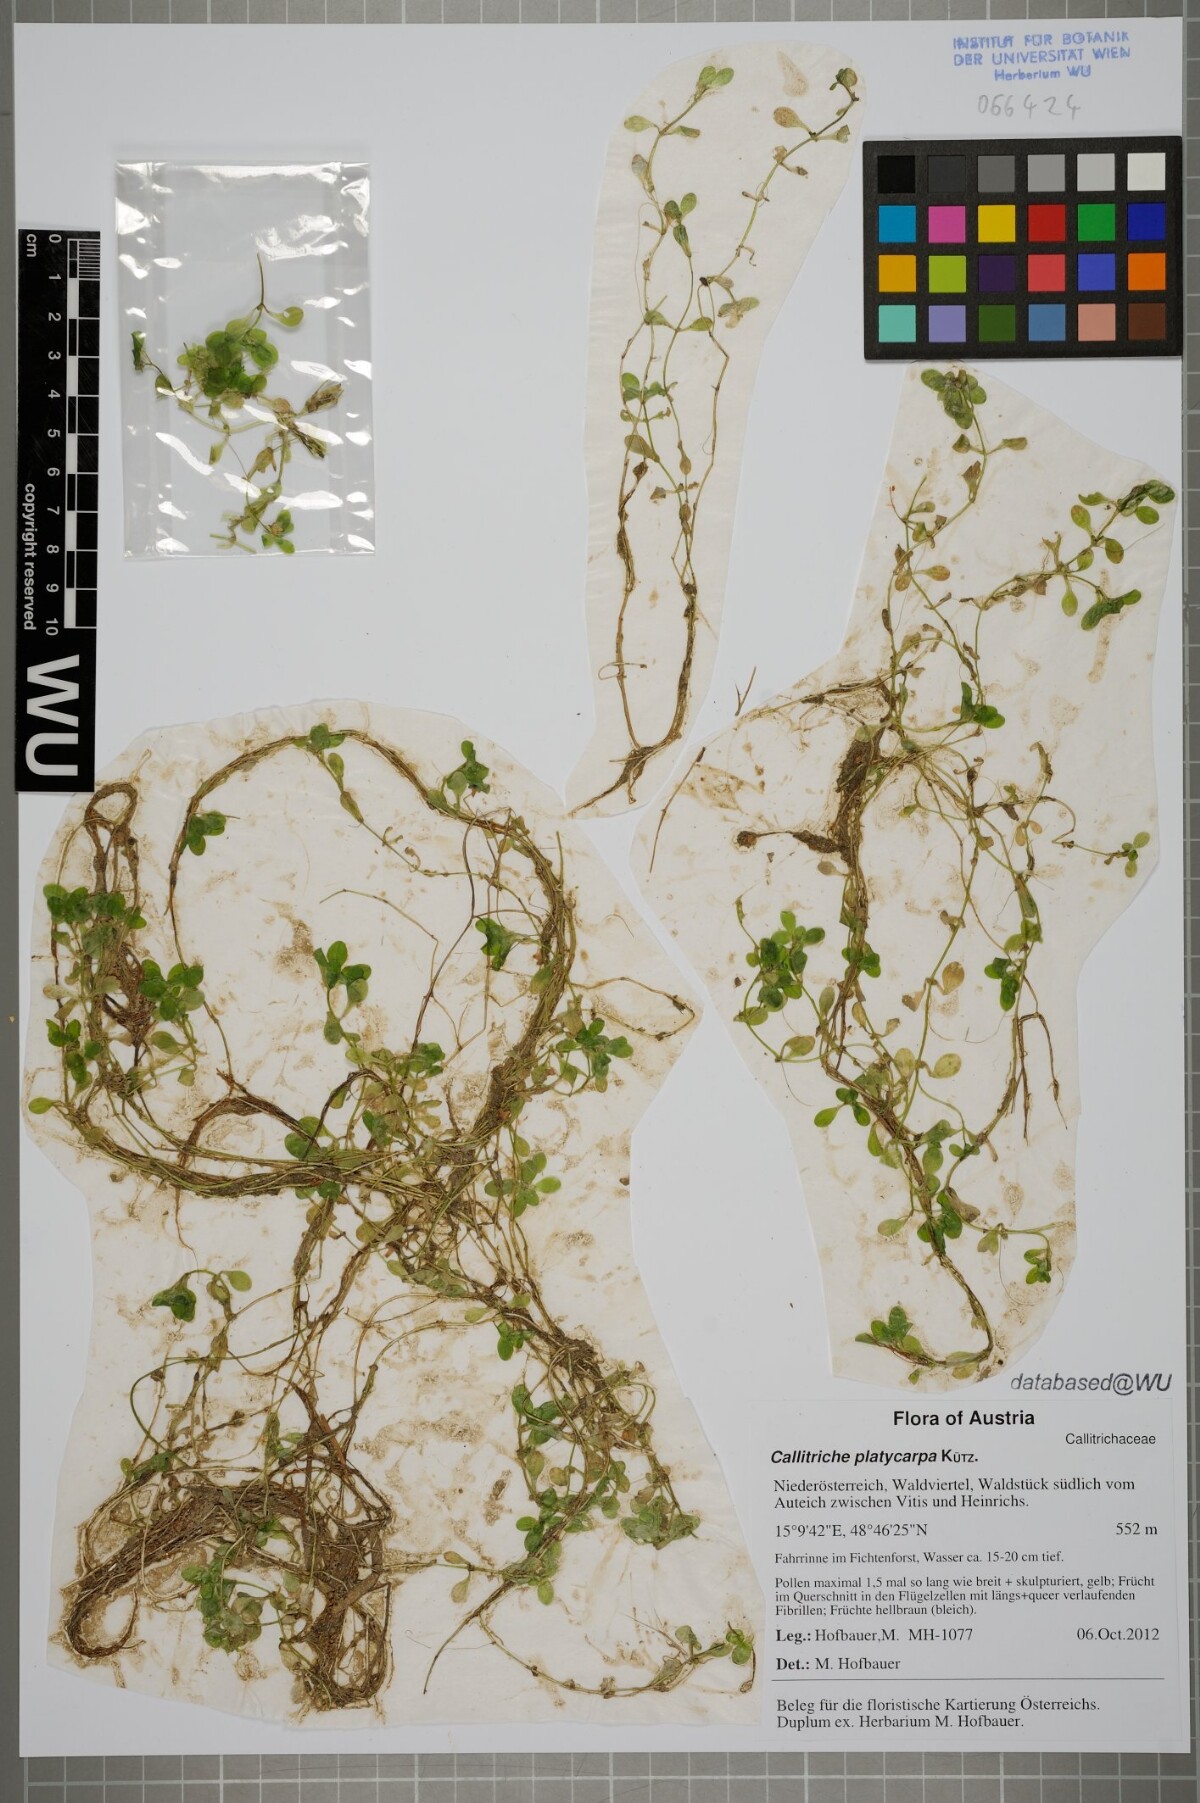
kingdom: Plantae
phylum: Tracheophyta
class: Magnoliopsida
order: Lamiales
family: Plantaginaceae
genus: Callitriche
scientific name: Callitriche stagnalis
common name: Common water-starwort
